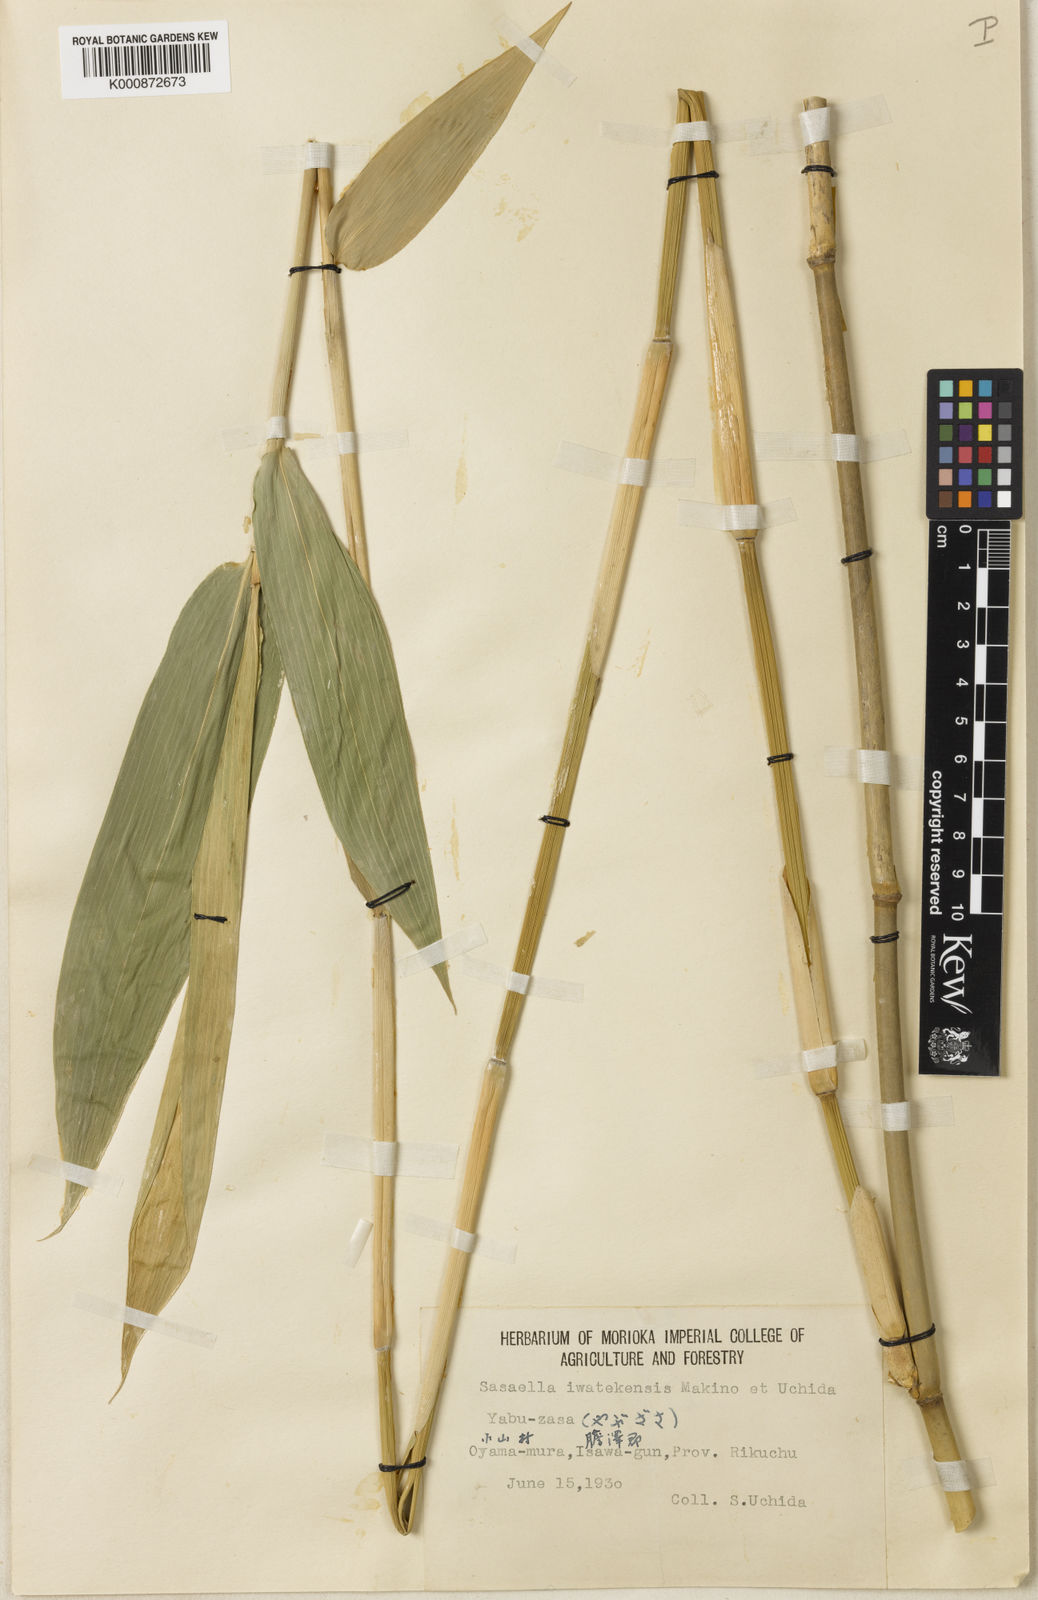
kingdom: Plantae
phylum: Tracheophyta
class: Liliopsida
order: Poales
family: Poaceae
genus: Sasaella
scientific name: Sasaella hidaensis
